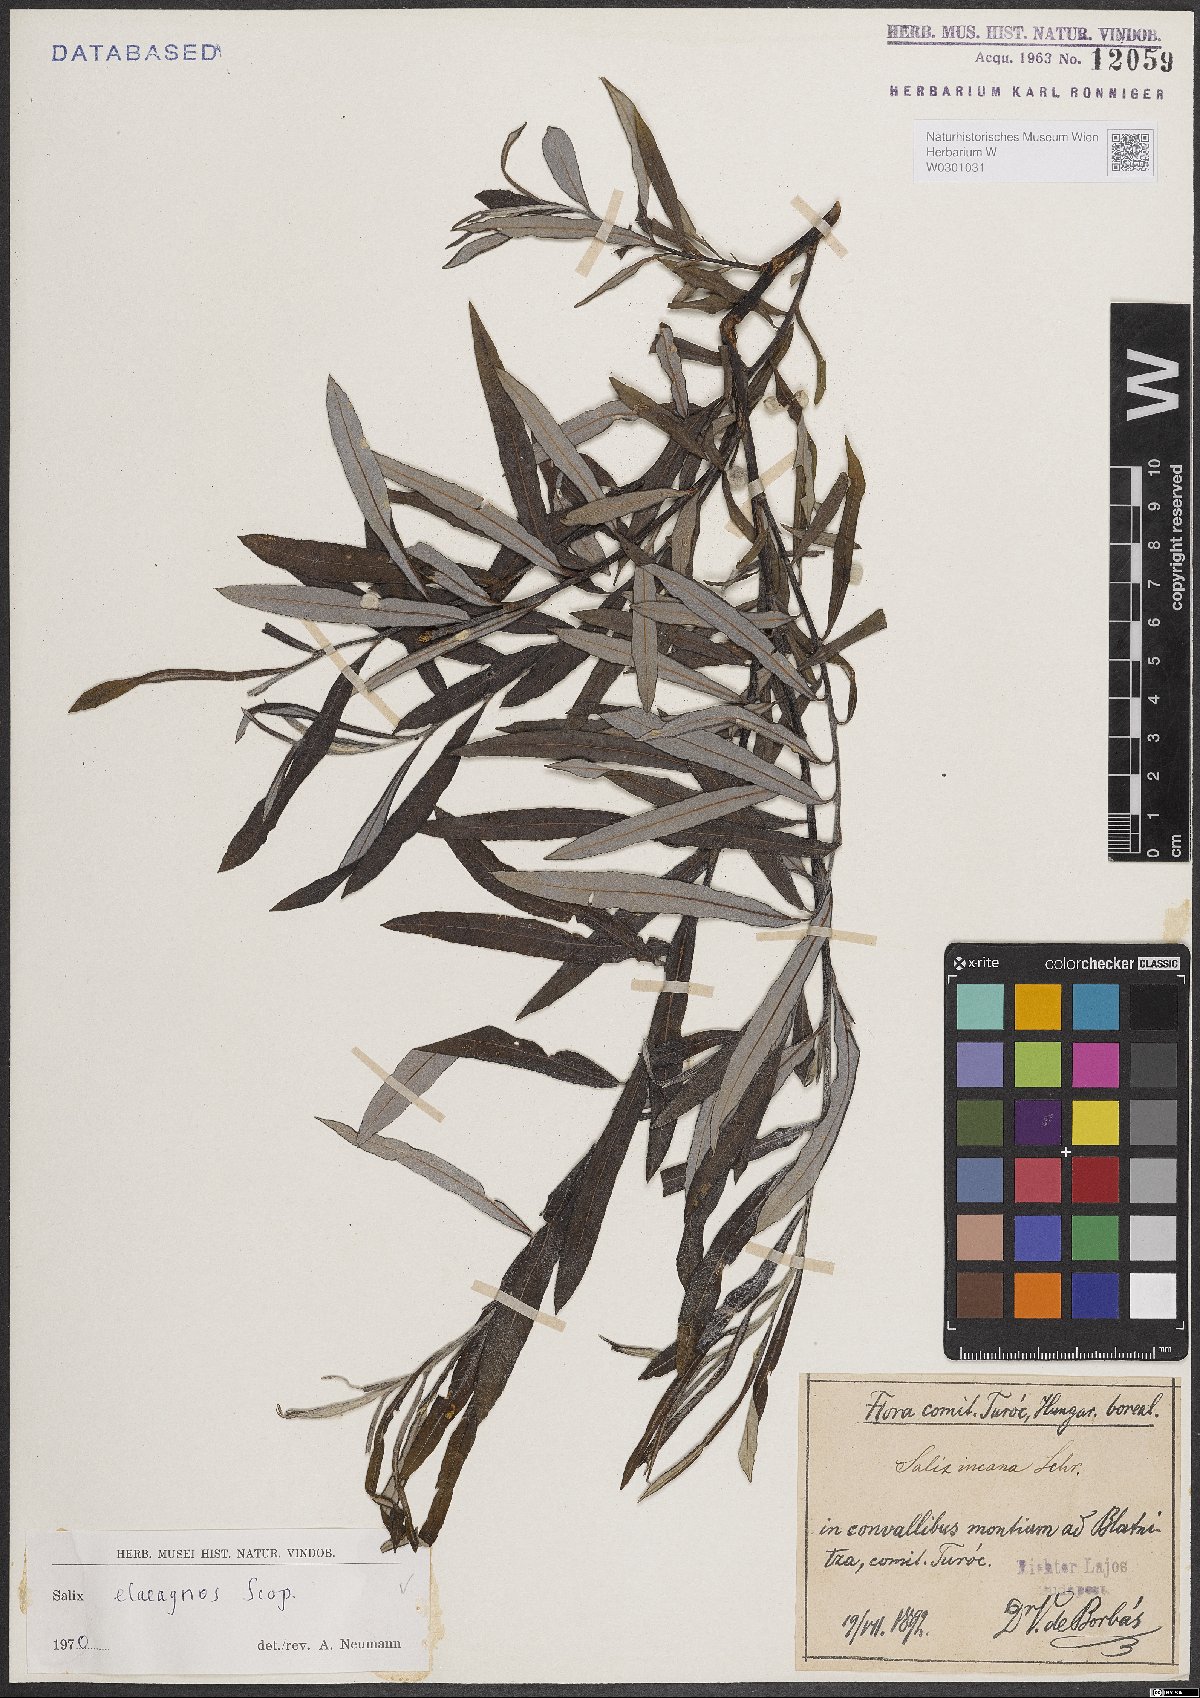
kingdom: Plantae
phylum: Tracheophyta
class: Magnoliopsida
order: Malpighiales
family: Salicaceae
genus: Salix
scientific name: Salix eleagnos
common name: Elaeagnus willow
